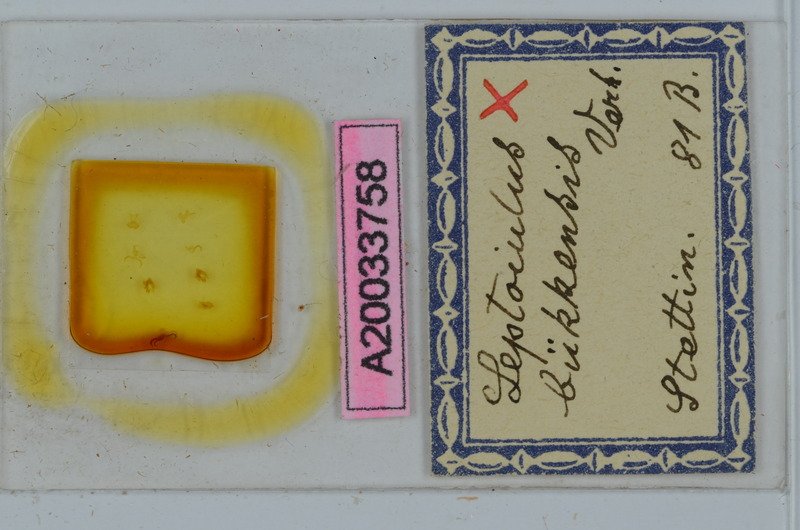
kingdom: Animalia
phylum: Arthropoda
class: Diplopoda
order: Julida
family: Julidae
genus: Leptoiulus
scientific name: Leptoiulus proximus
